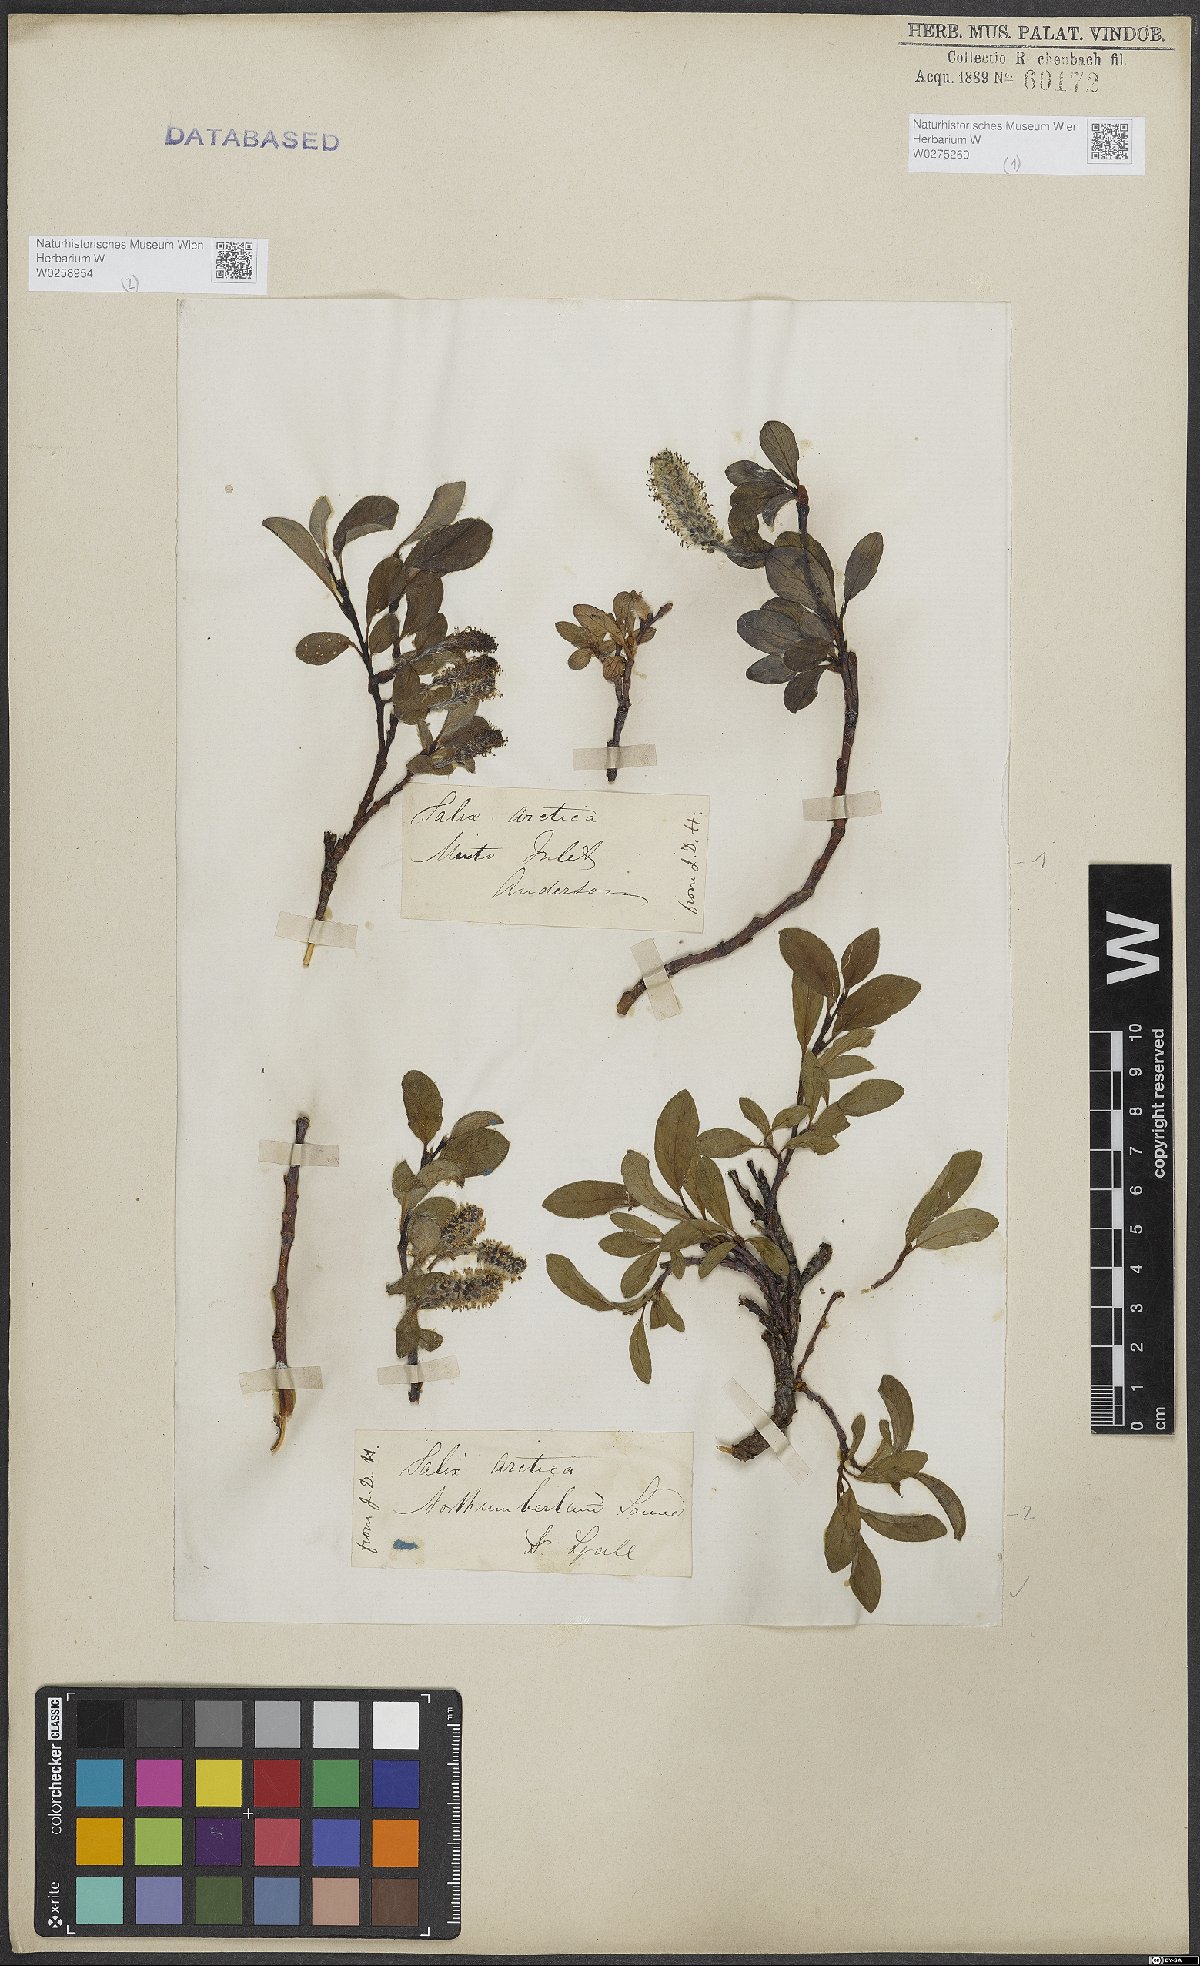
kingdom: Plantae
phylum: Tracheophyta
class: Magnoliopsida
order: Malpighiales
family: Salicaceae
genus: Salix
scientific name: Salix arctica
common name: Arctic willow
